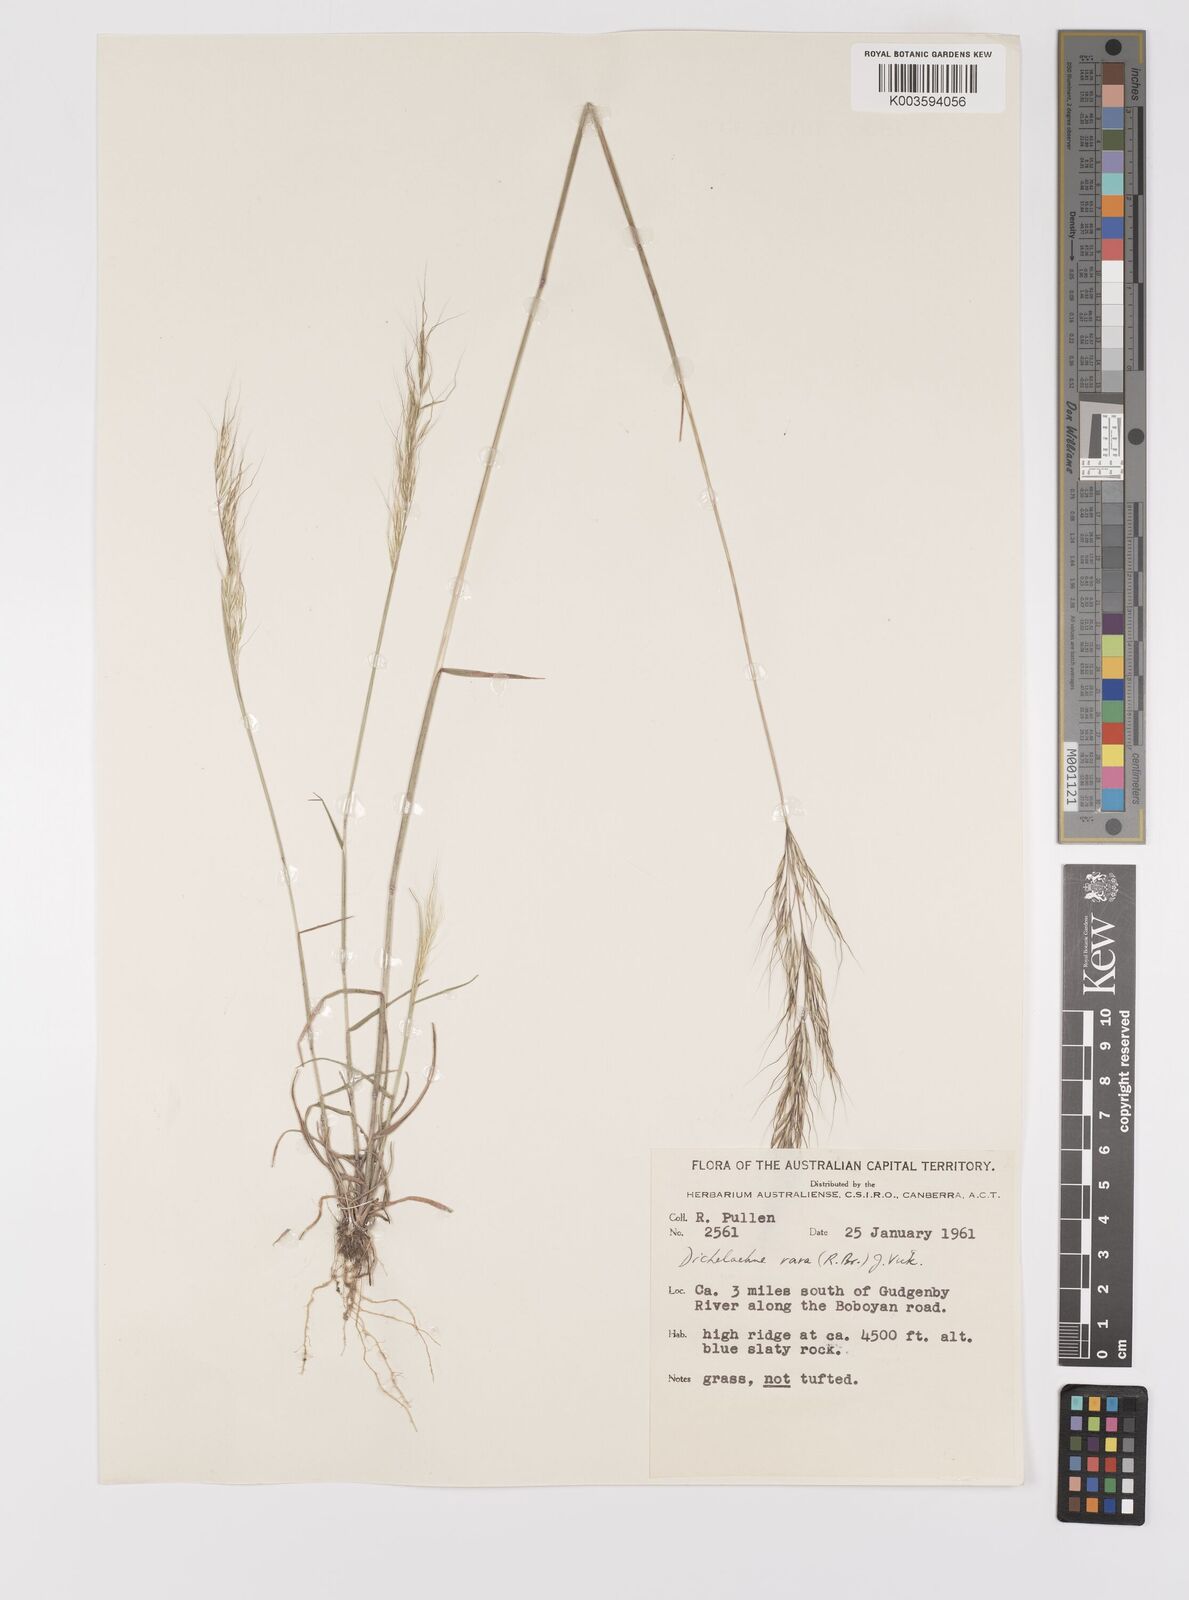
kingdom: Plantae
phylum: Tracheophyta
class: Liliopsida
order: Poales
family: Poaceae
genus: Dichelachne
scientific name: Dichelachne rara
